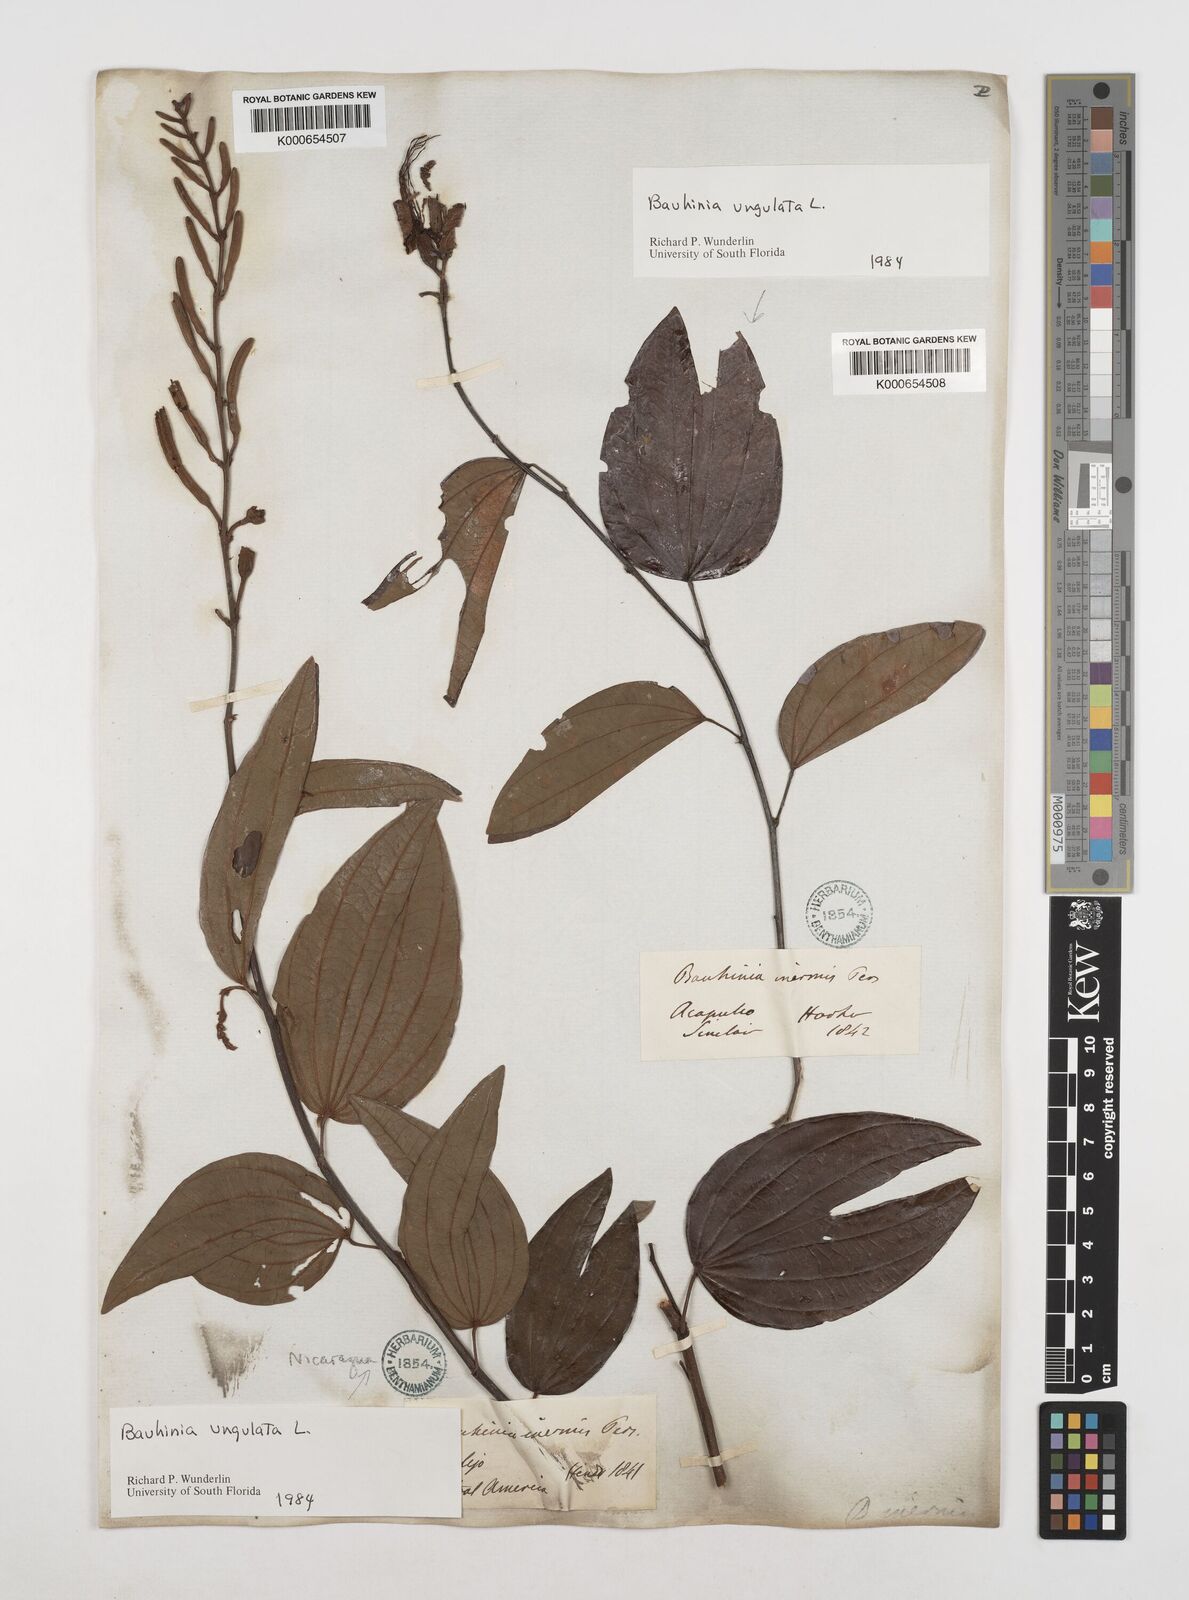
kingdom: Plantae
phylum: Tracheophyta
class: Magnoliopsida
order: Fabales
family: Fabaceae
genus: Bauhinia
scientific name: Bauhinia ungulata
